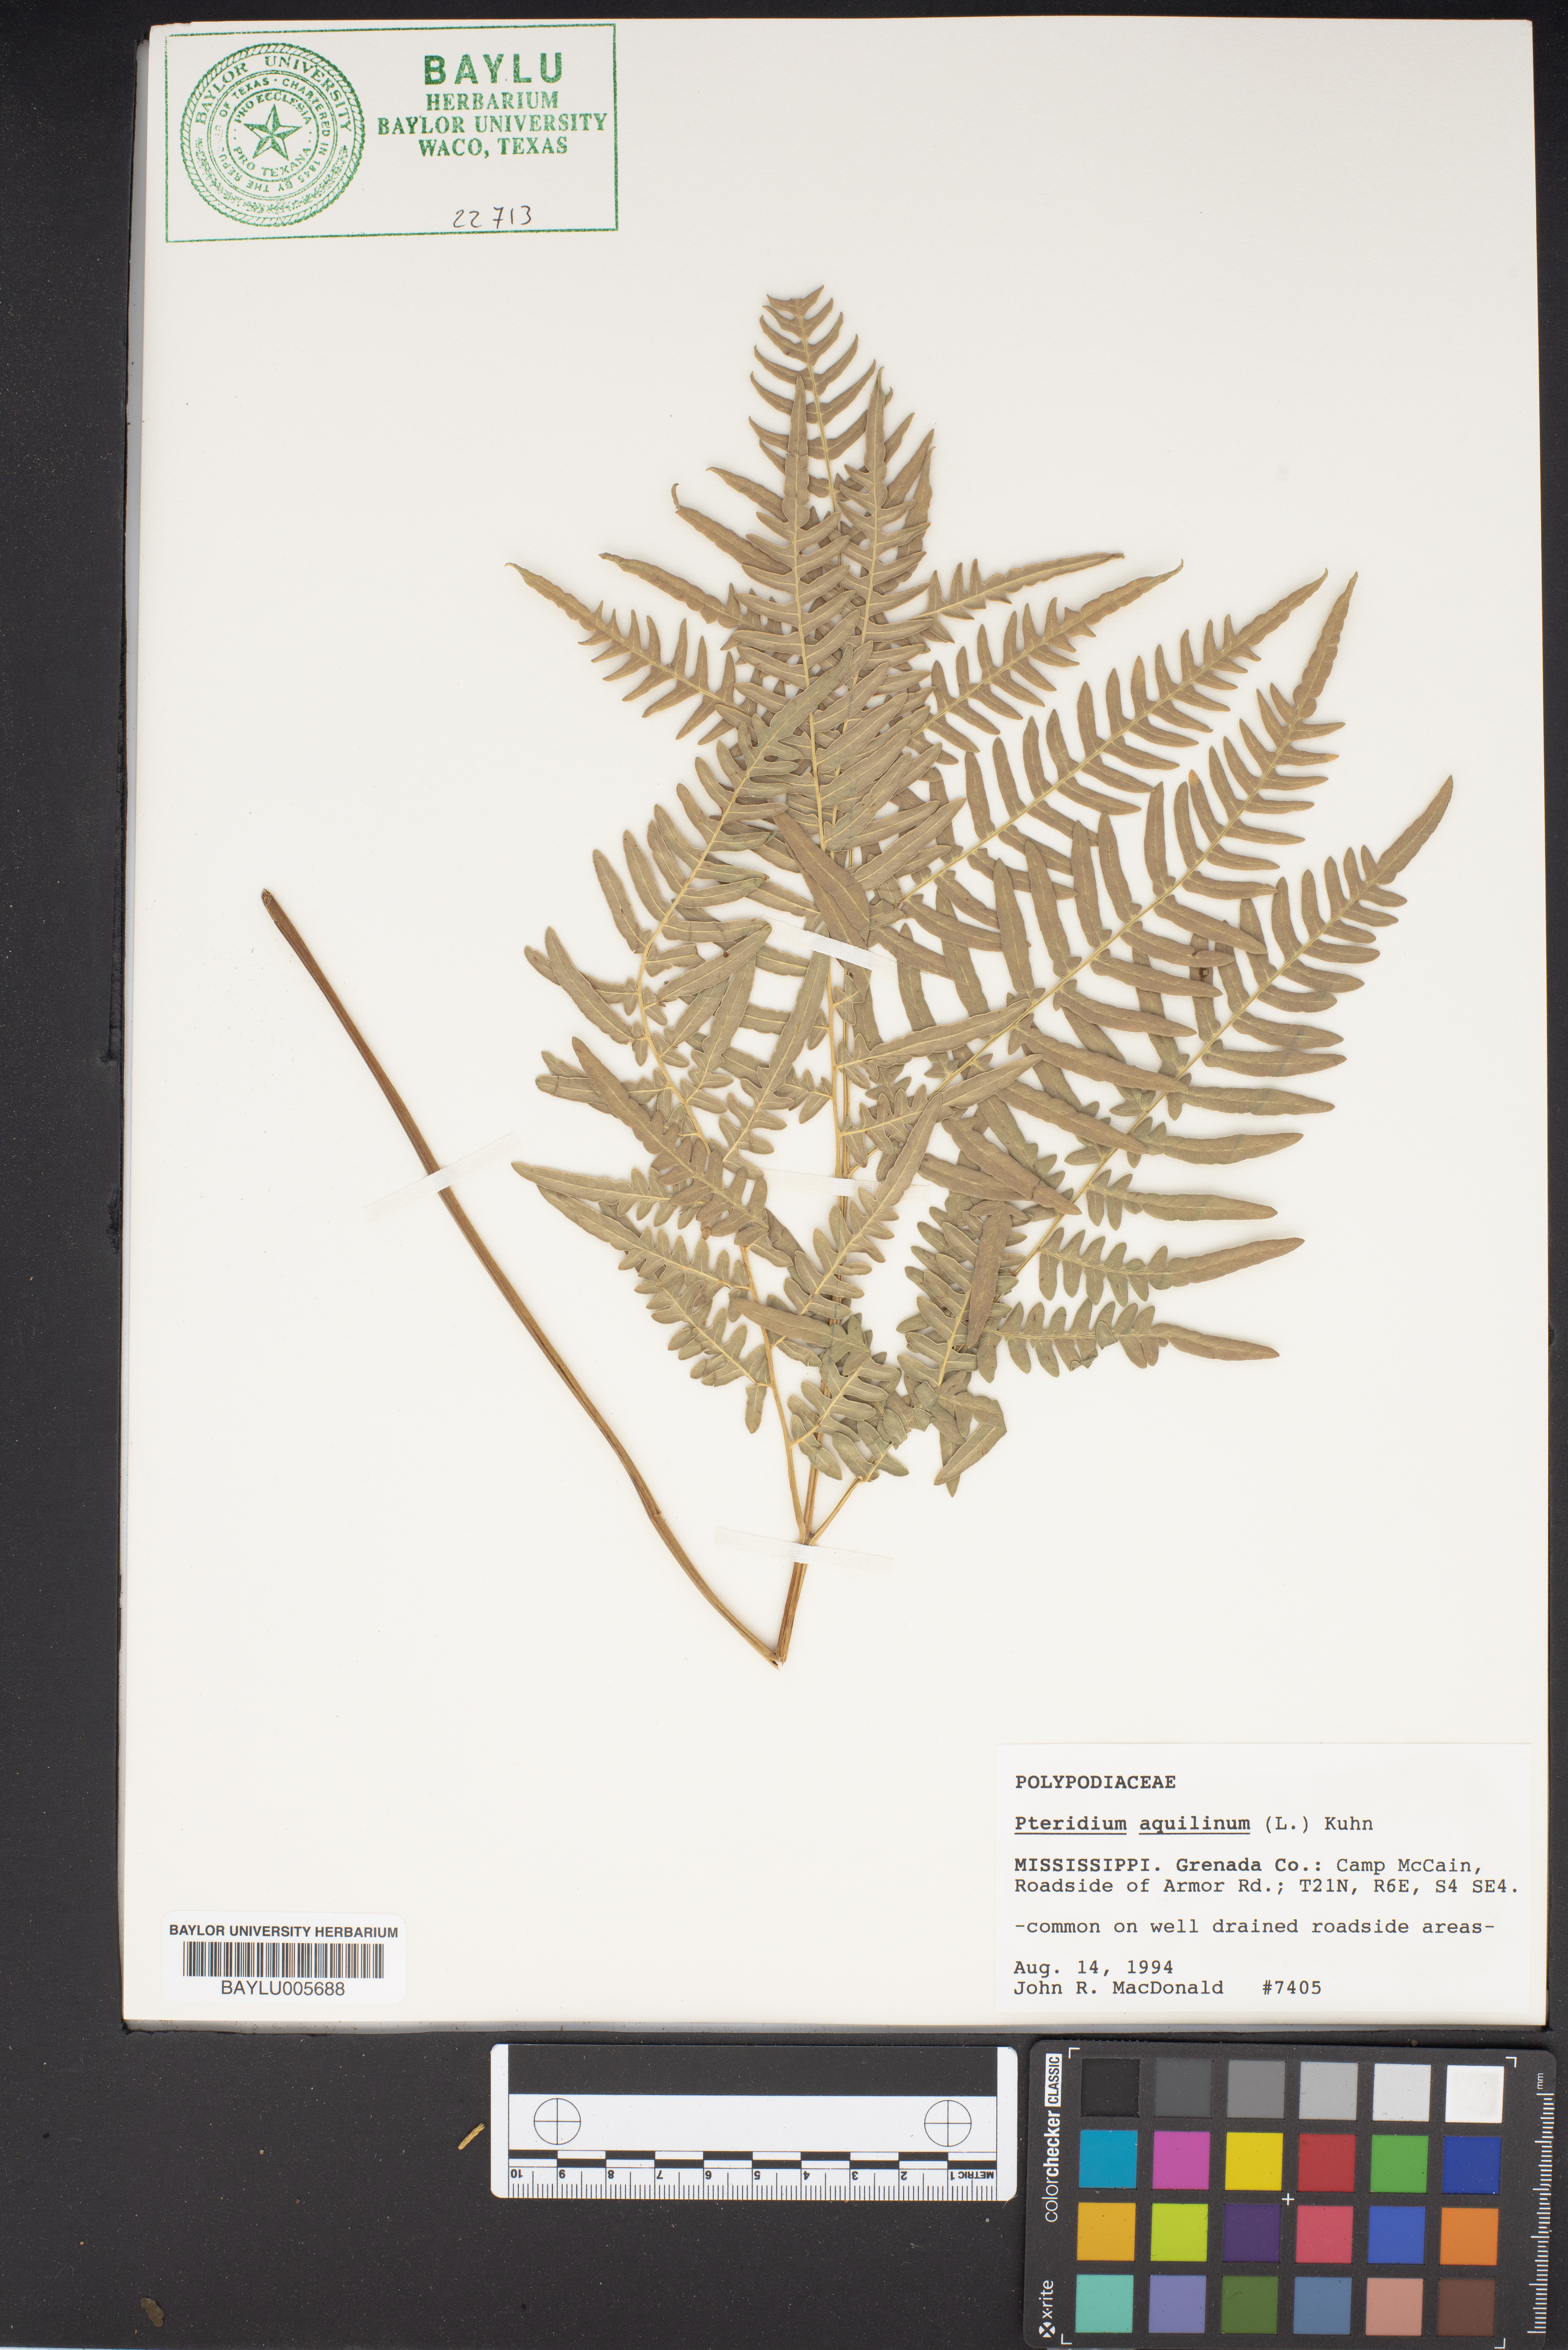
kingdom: Plantae
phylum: Tracheophyta
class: Polypodiopsida
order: Polypodiales
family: Dennstaedtiaceae
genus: Pteridium
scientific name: Pteridium aquilinum
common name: Bracken
